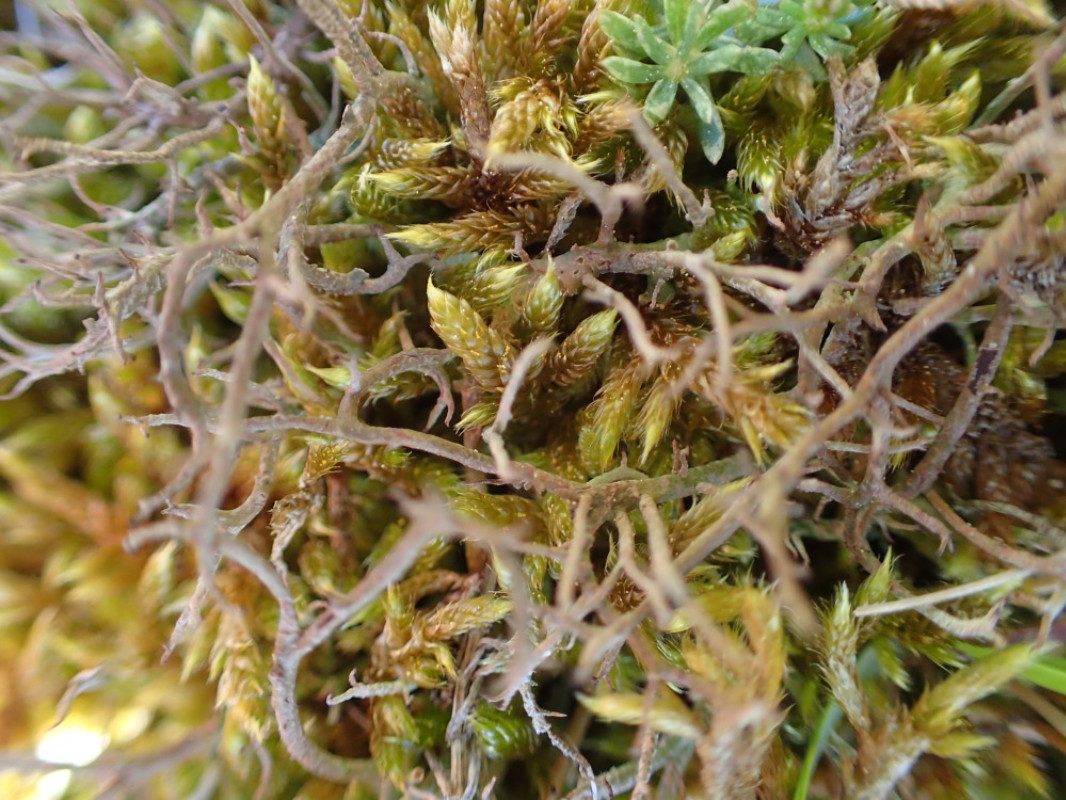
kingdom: Fungi
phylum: Ascomycota
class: Lecanoromycetes
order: Lecanorales
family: Cladoniaceae
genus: Cladonia
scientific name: Cladonia furcata
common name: kløftet bægerlav
